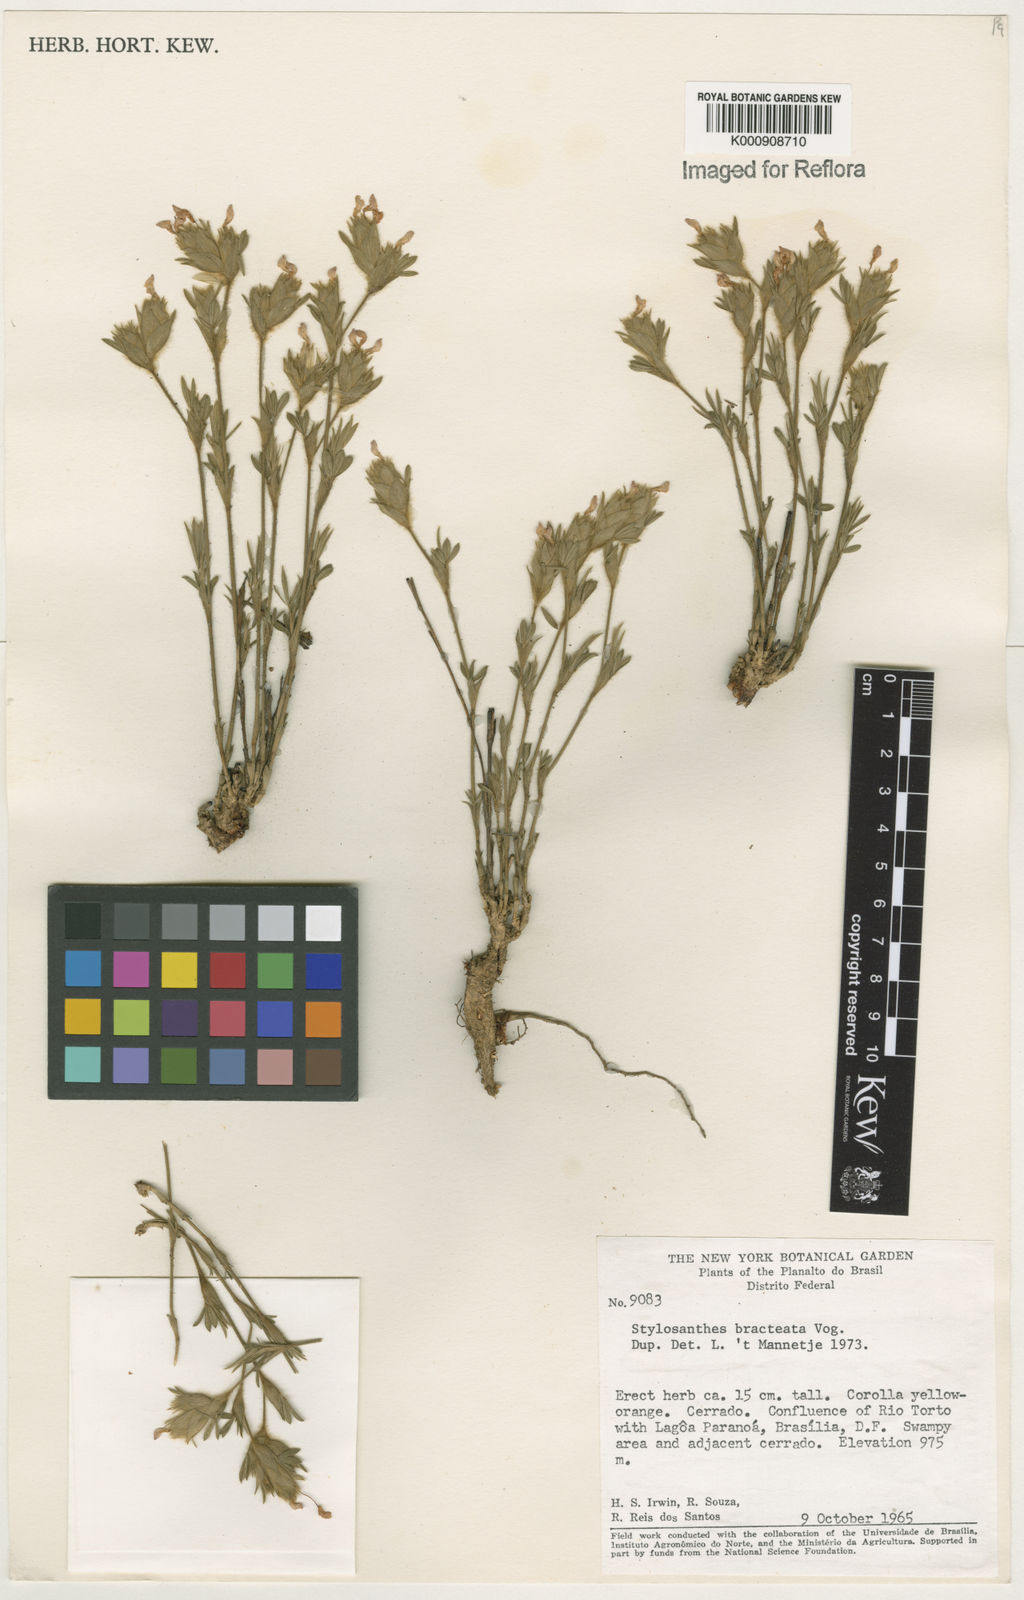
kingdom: Plantae
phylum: Tracheophyta
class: Magnoliopsida
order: Fabales
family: Fabaceae
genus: Stylosanthes
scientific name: Stylosanthes bracteata
